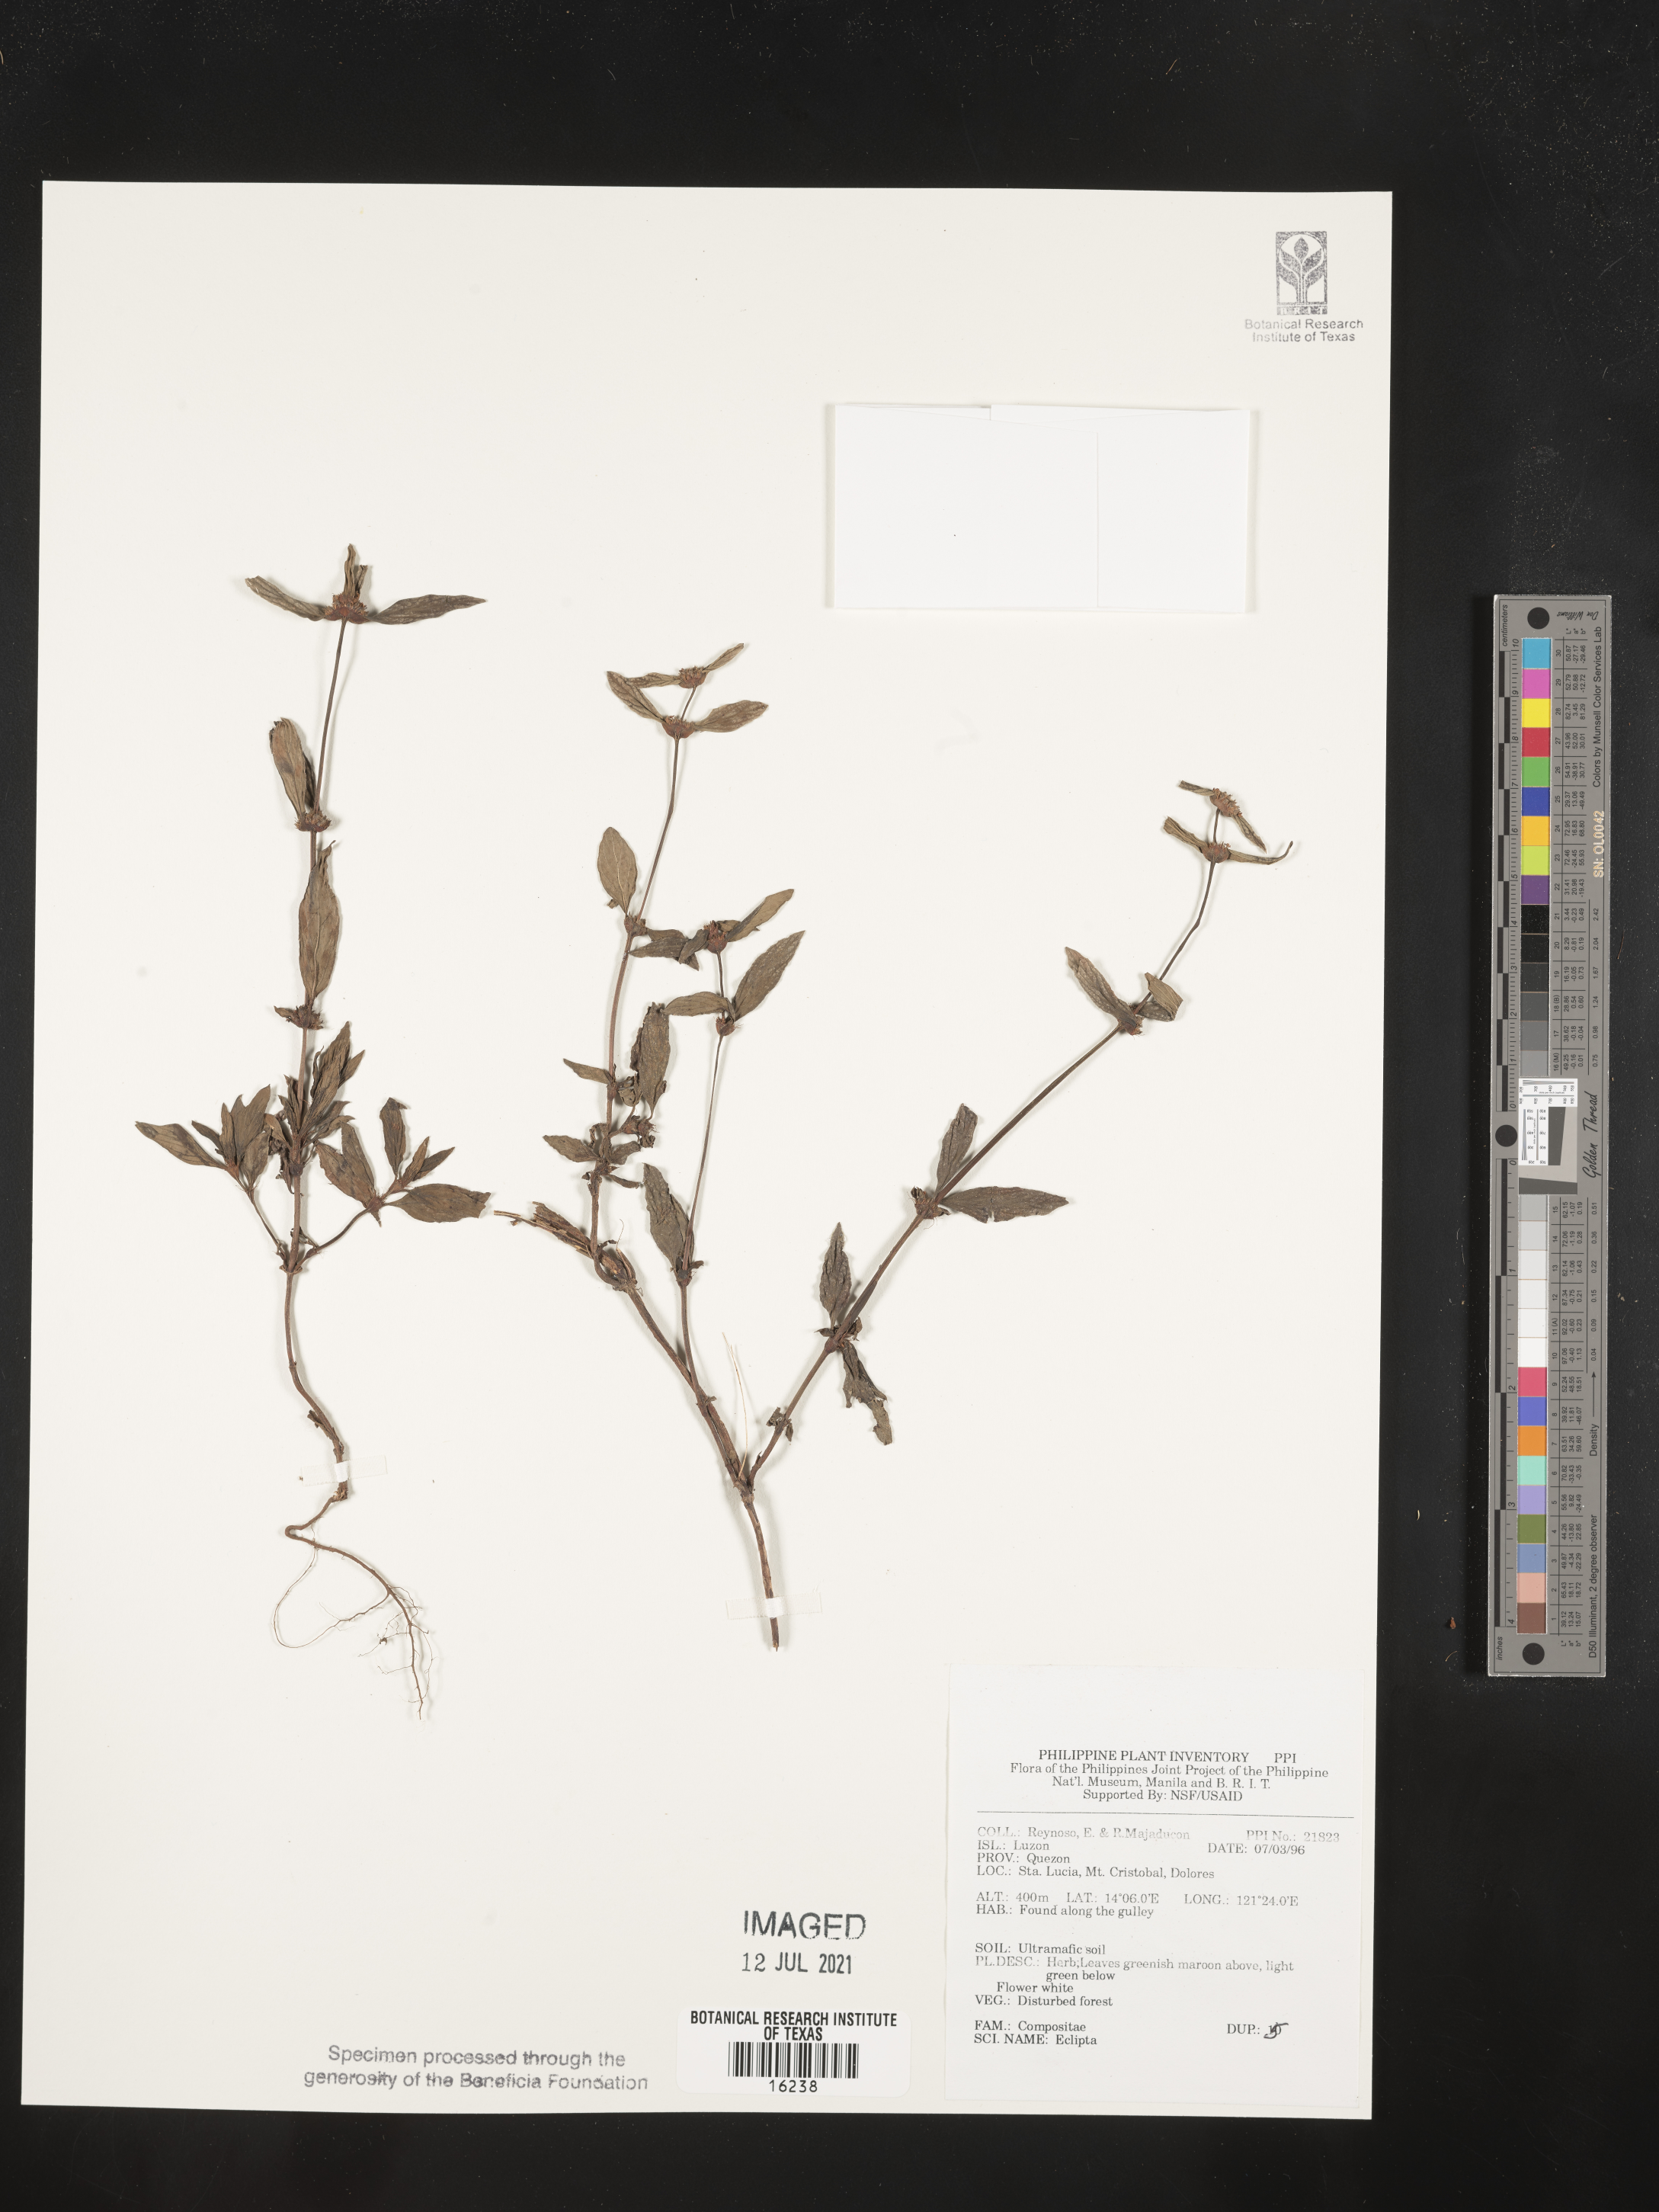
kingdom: Plantae
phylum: Tracheophyta
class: Magnoliopsida
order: Asterales
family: Asteraceae
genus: Eclipta
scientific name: Eclipta
